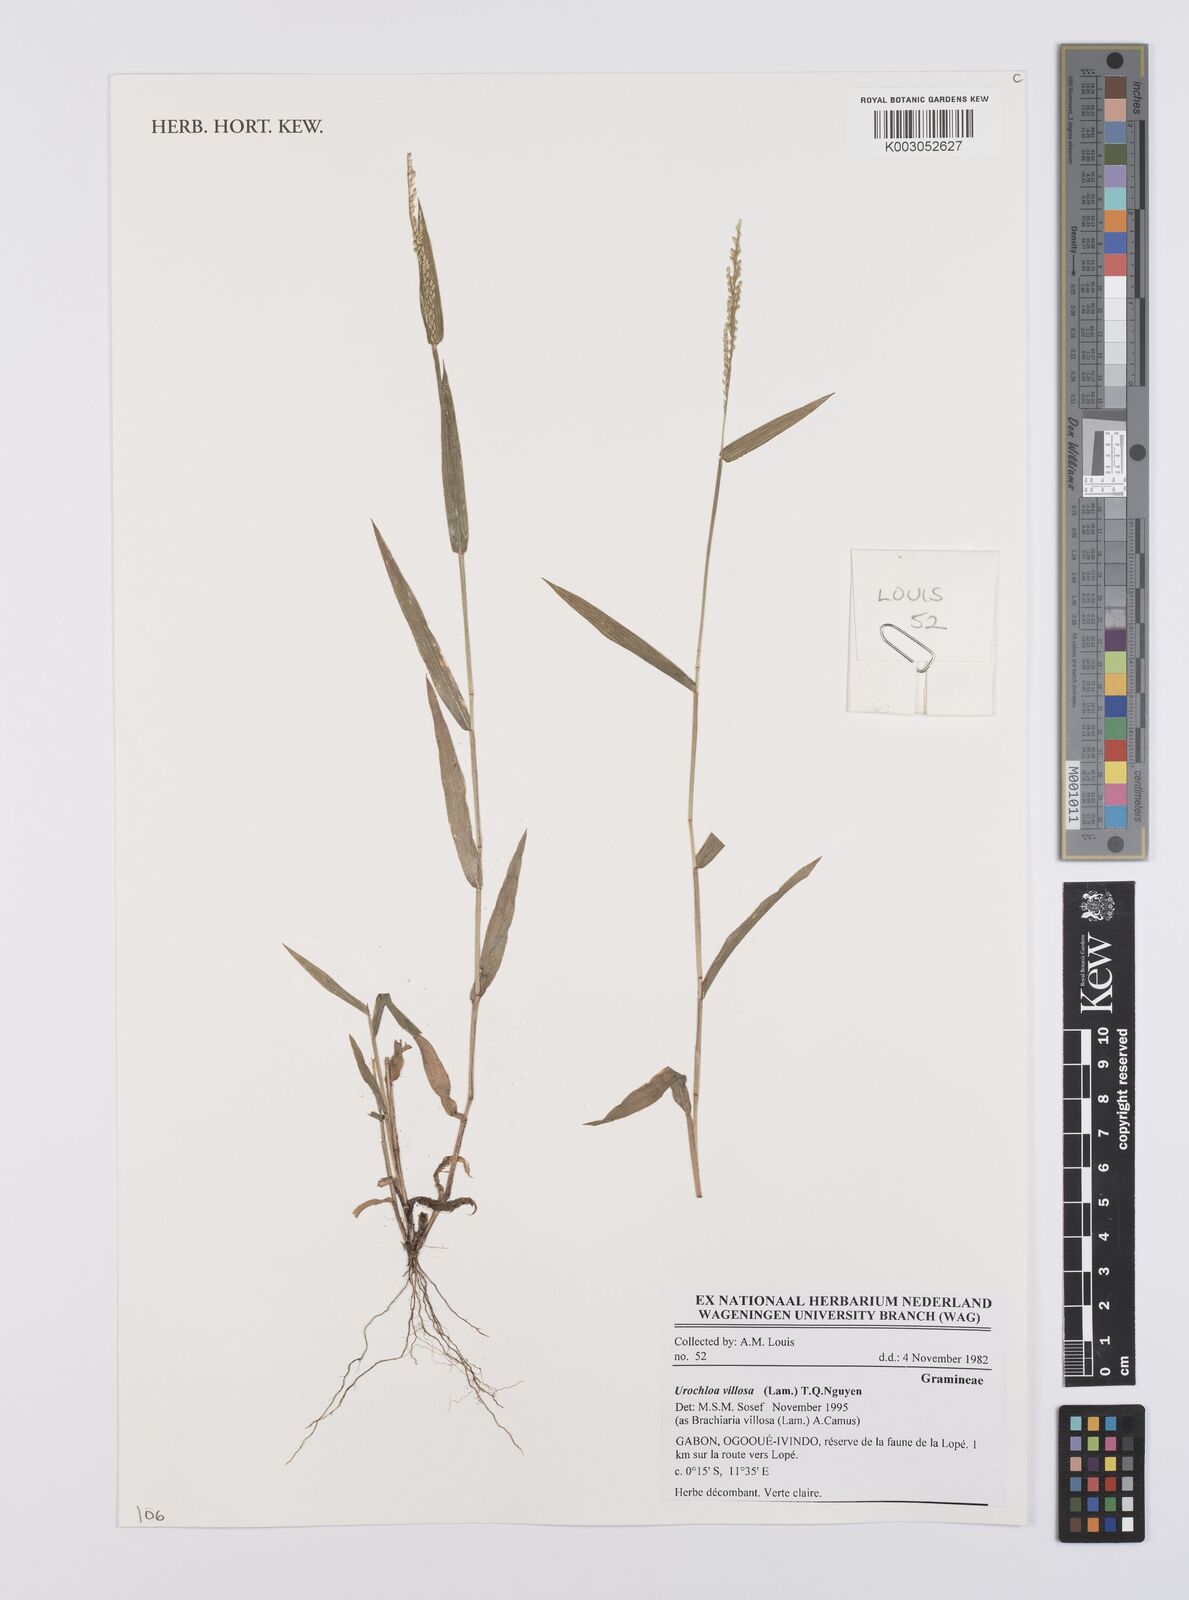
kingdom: Plantae
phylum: Tracheophyta
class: Liliopsida
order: Poales
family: Poaceae
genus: Urochloa
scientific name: Urochloa villosa
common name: Hairy signalgrass
